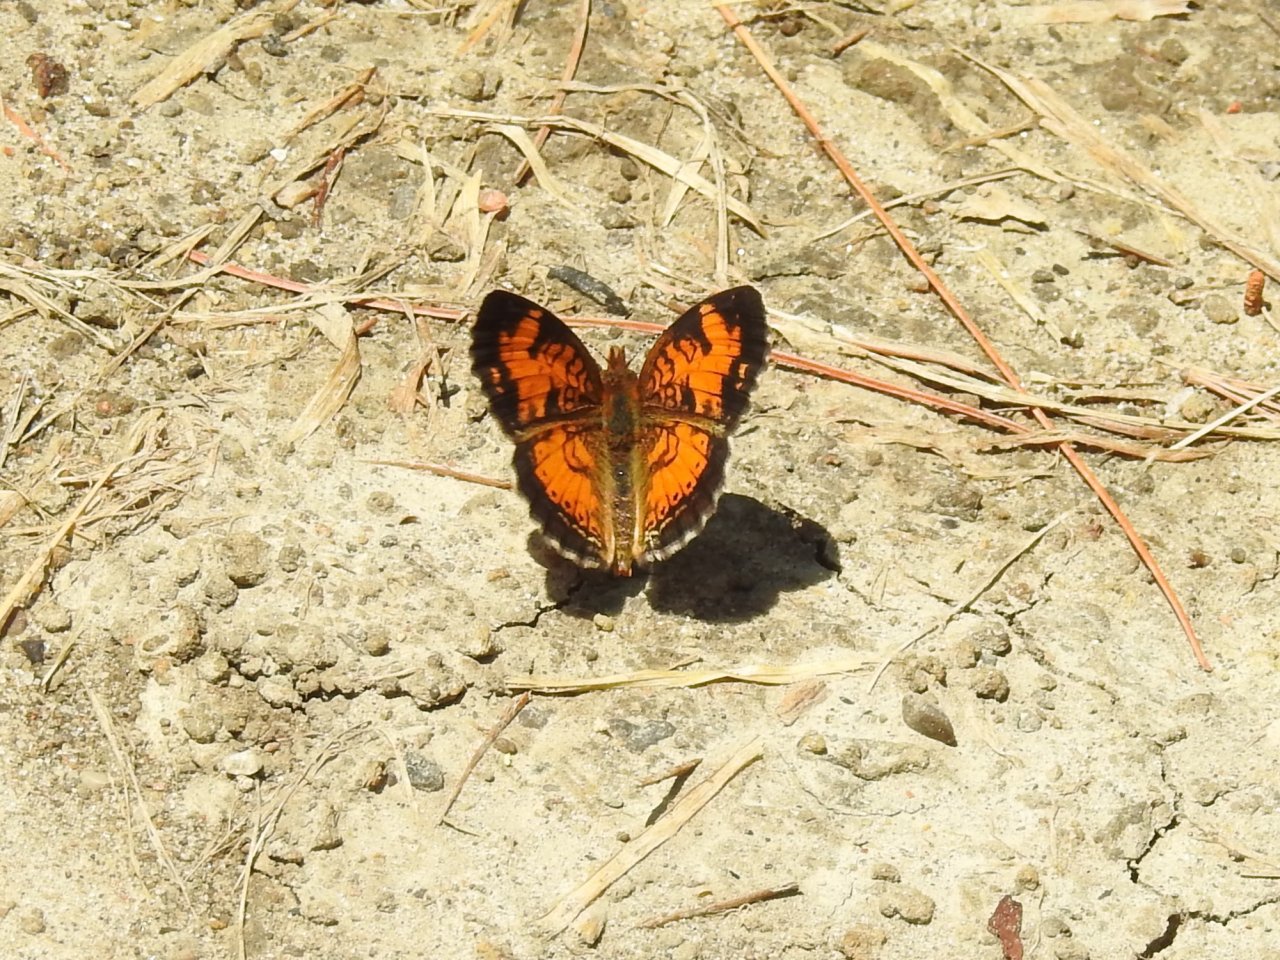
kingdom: Animalia
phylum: Arthropoda
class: Insecta
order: Lepidoptera
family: Nymphalidae
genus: Phyciodes
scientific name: Phyciodes tharos
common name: Northern Crescent
